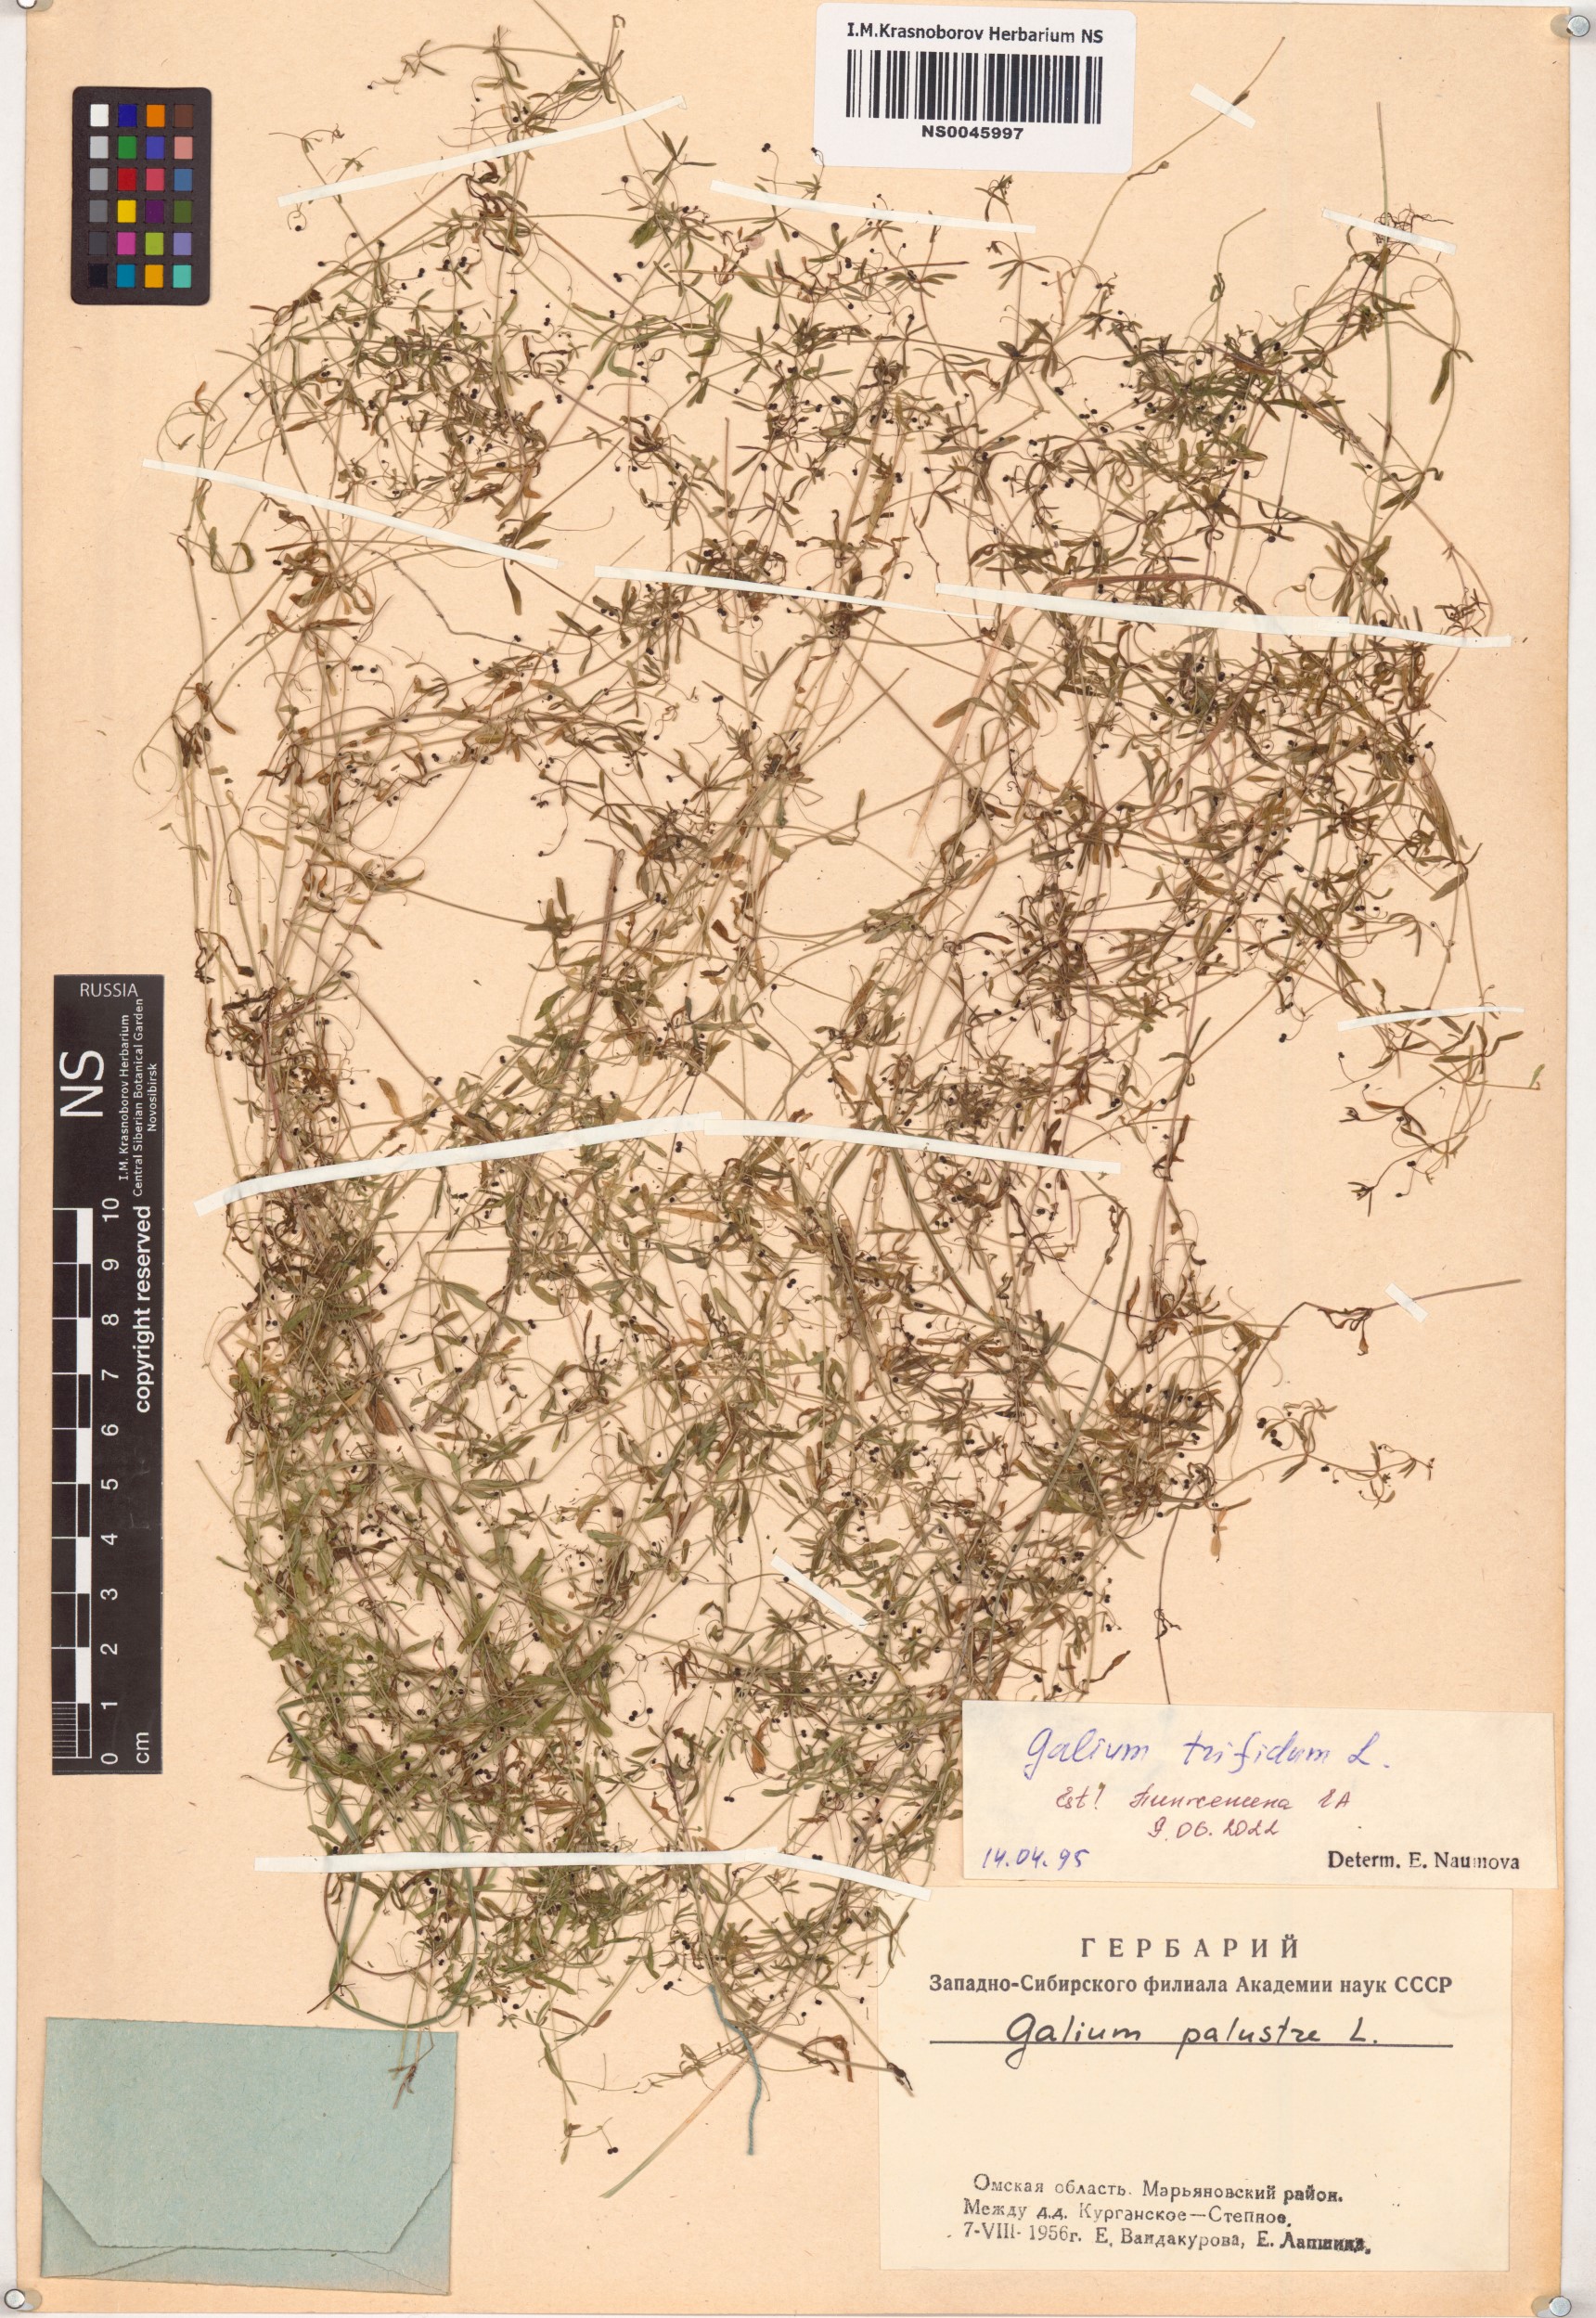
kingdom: Plantae
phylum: Tracheophyta
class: Magnoliopsida
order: Gentianales
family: Rubiaceae
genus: Galium
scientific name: Galium trifidum
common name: Small bedstraw
